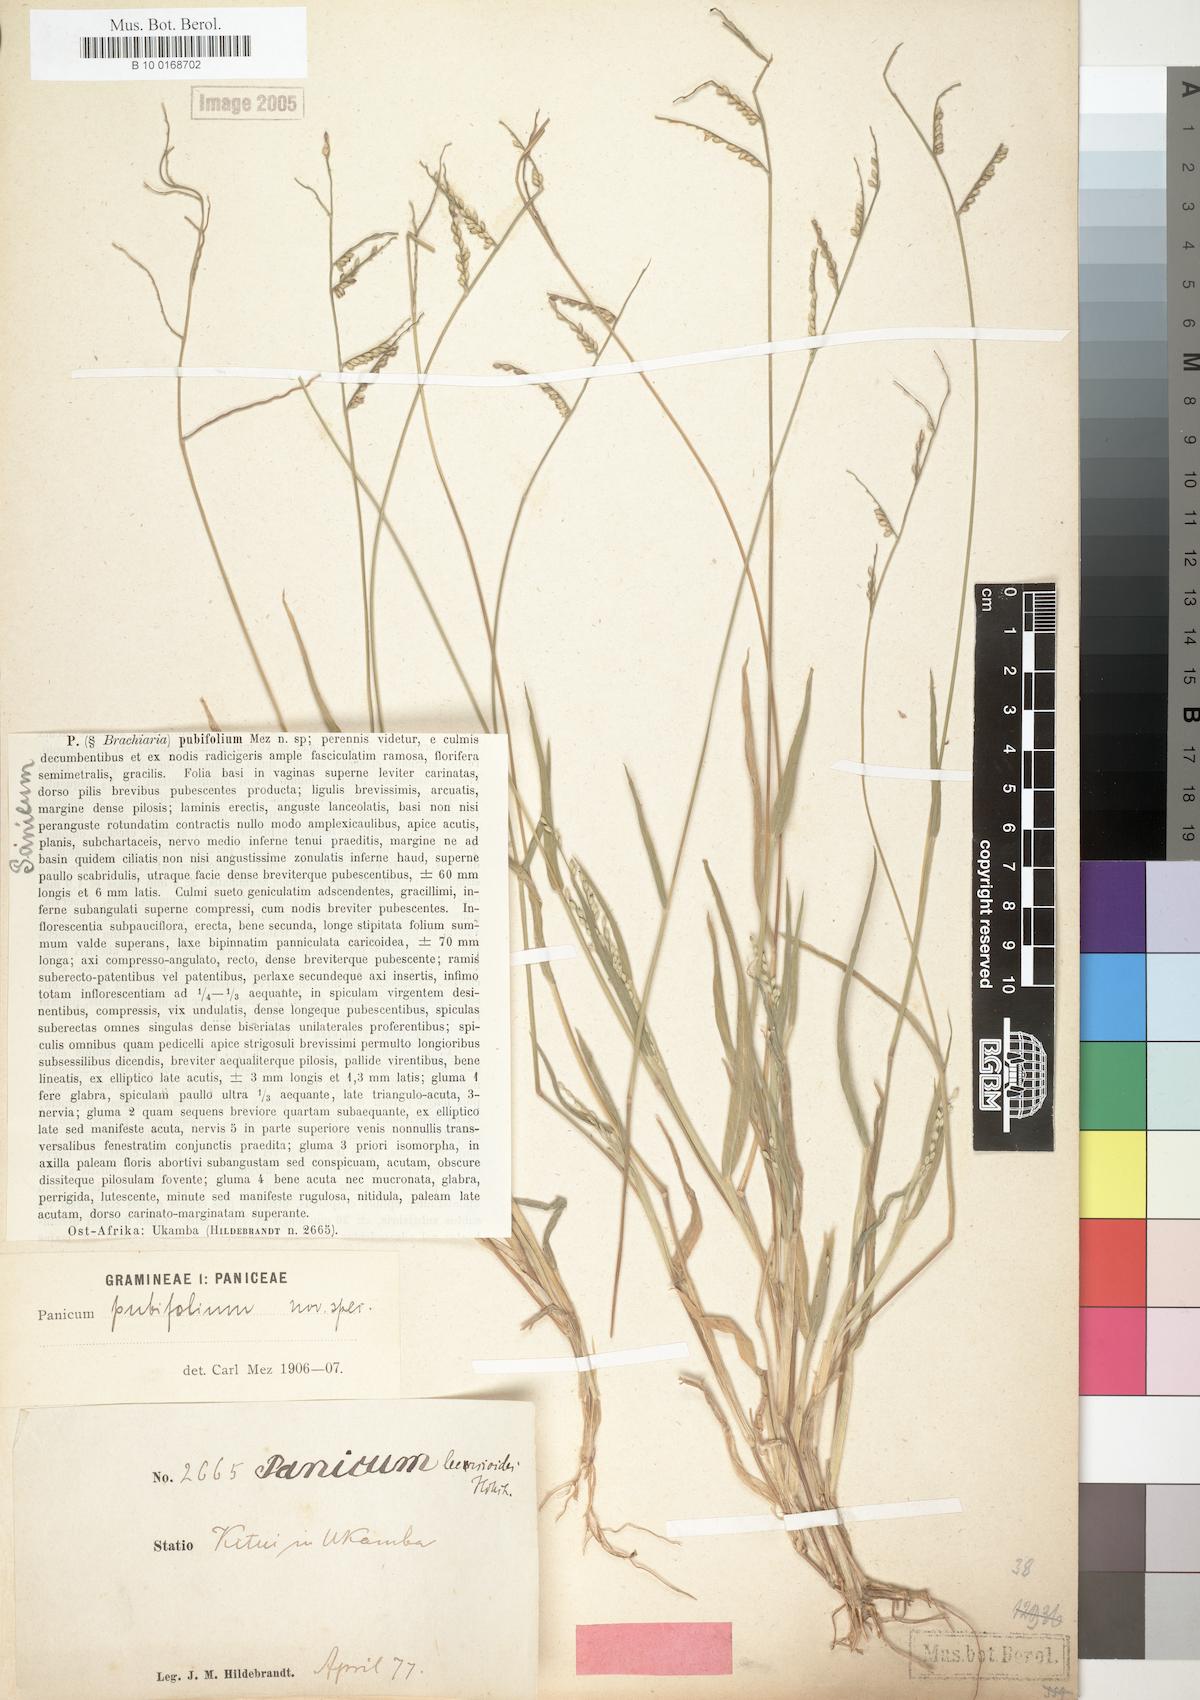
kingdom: Plantae
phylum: Tracheophyta
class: Liliopsida
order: Poales
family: Poaceae
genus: Urochloa
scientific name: Urochloa xantholeuca
